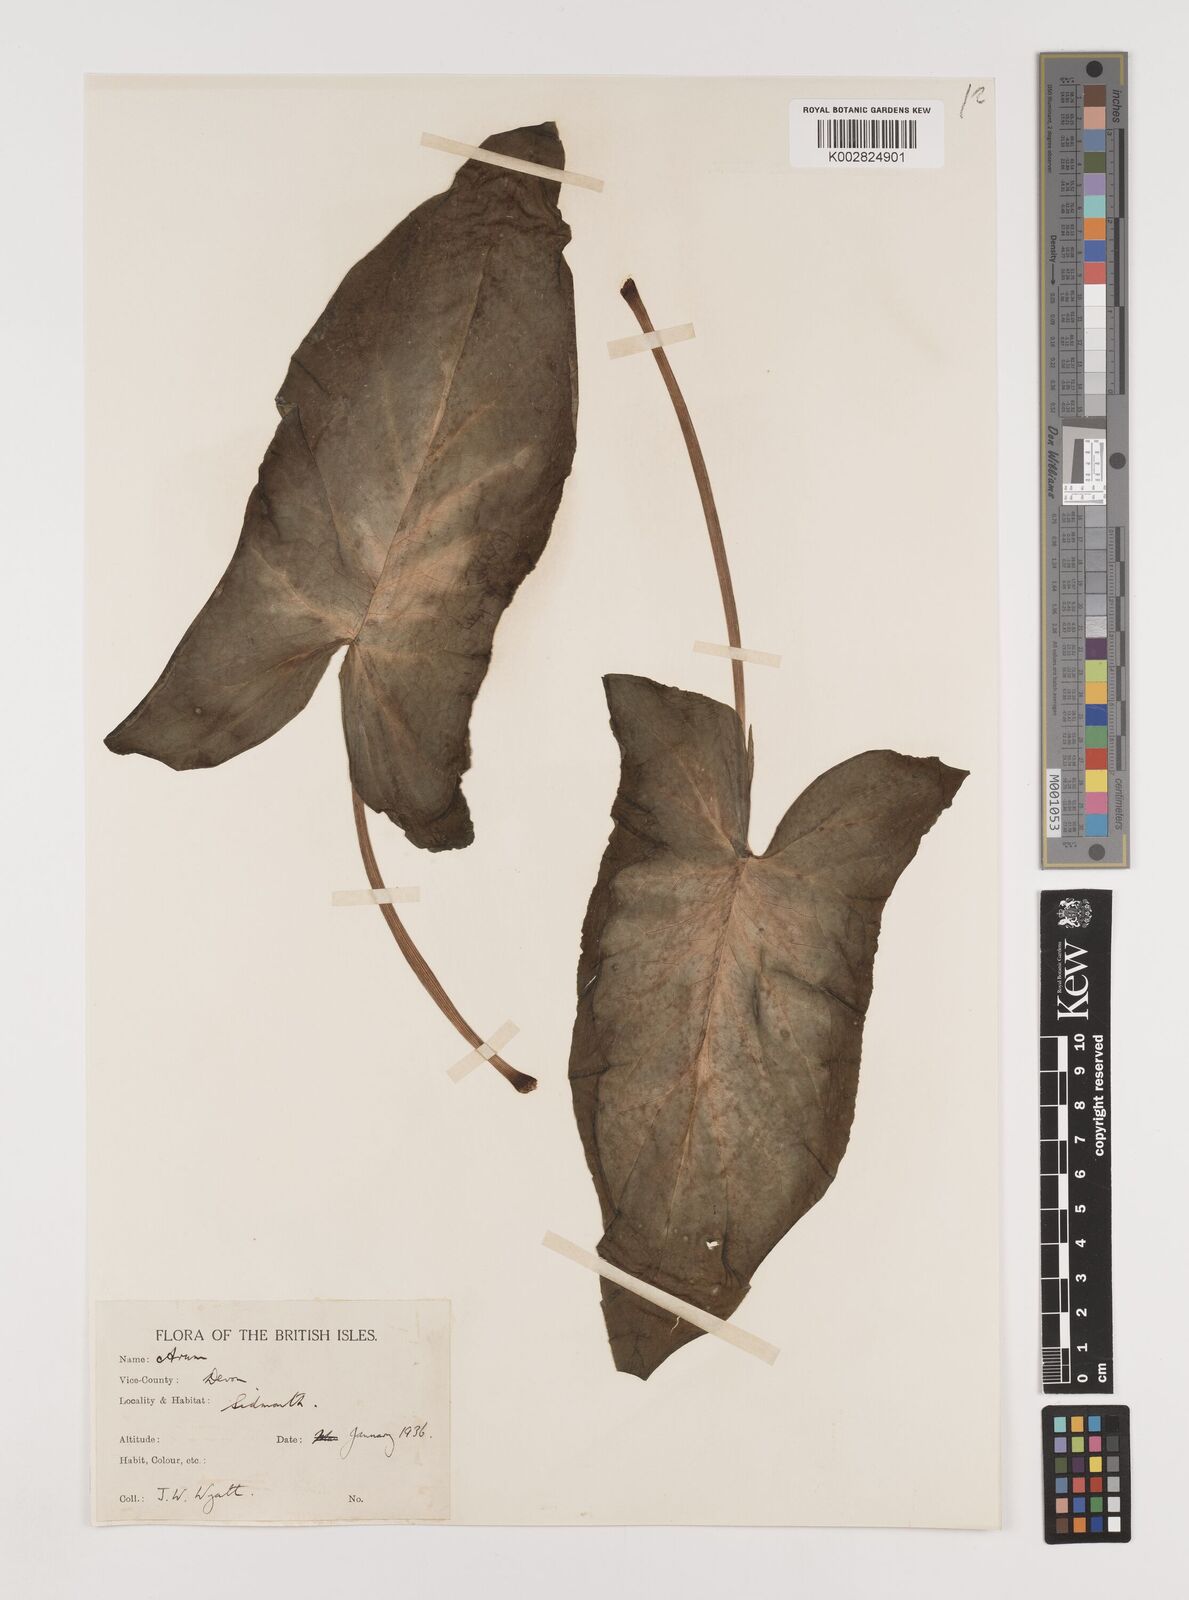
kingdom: Plantae
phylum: Tracheophyta
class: Liliopsida
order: Alismatales
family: Araceae
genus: Arum
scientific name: Arum italicum
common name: Italian lords-and-ladies
